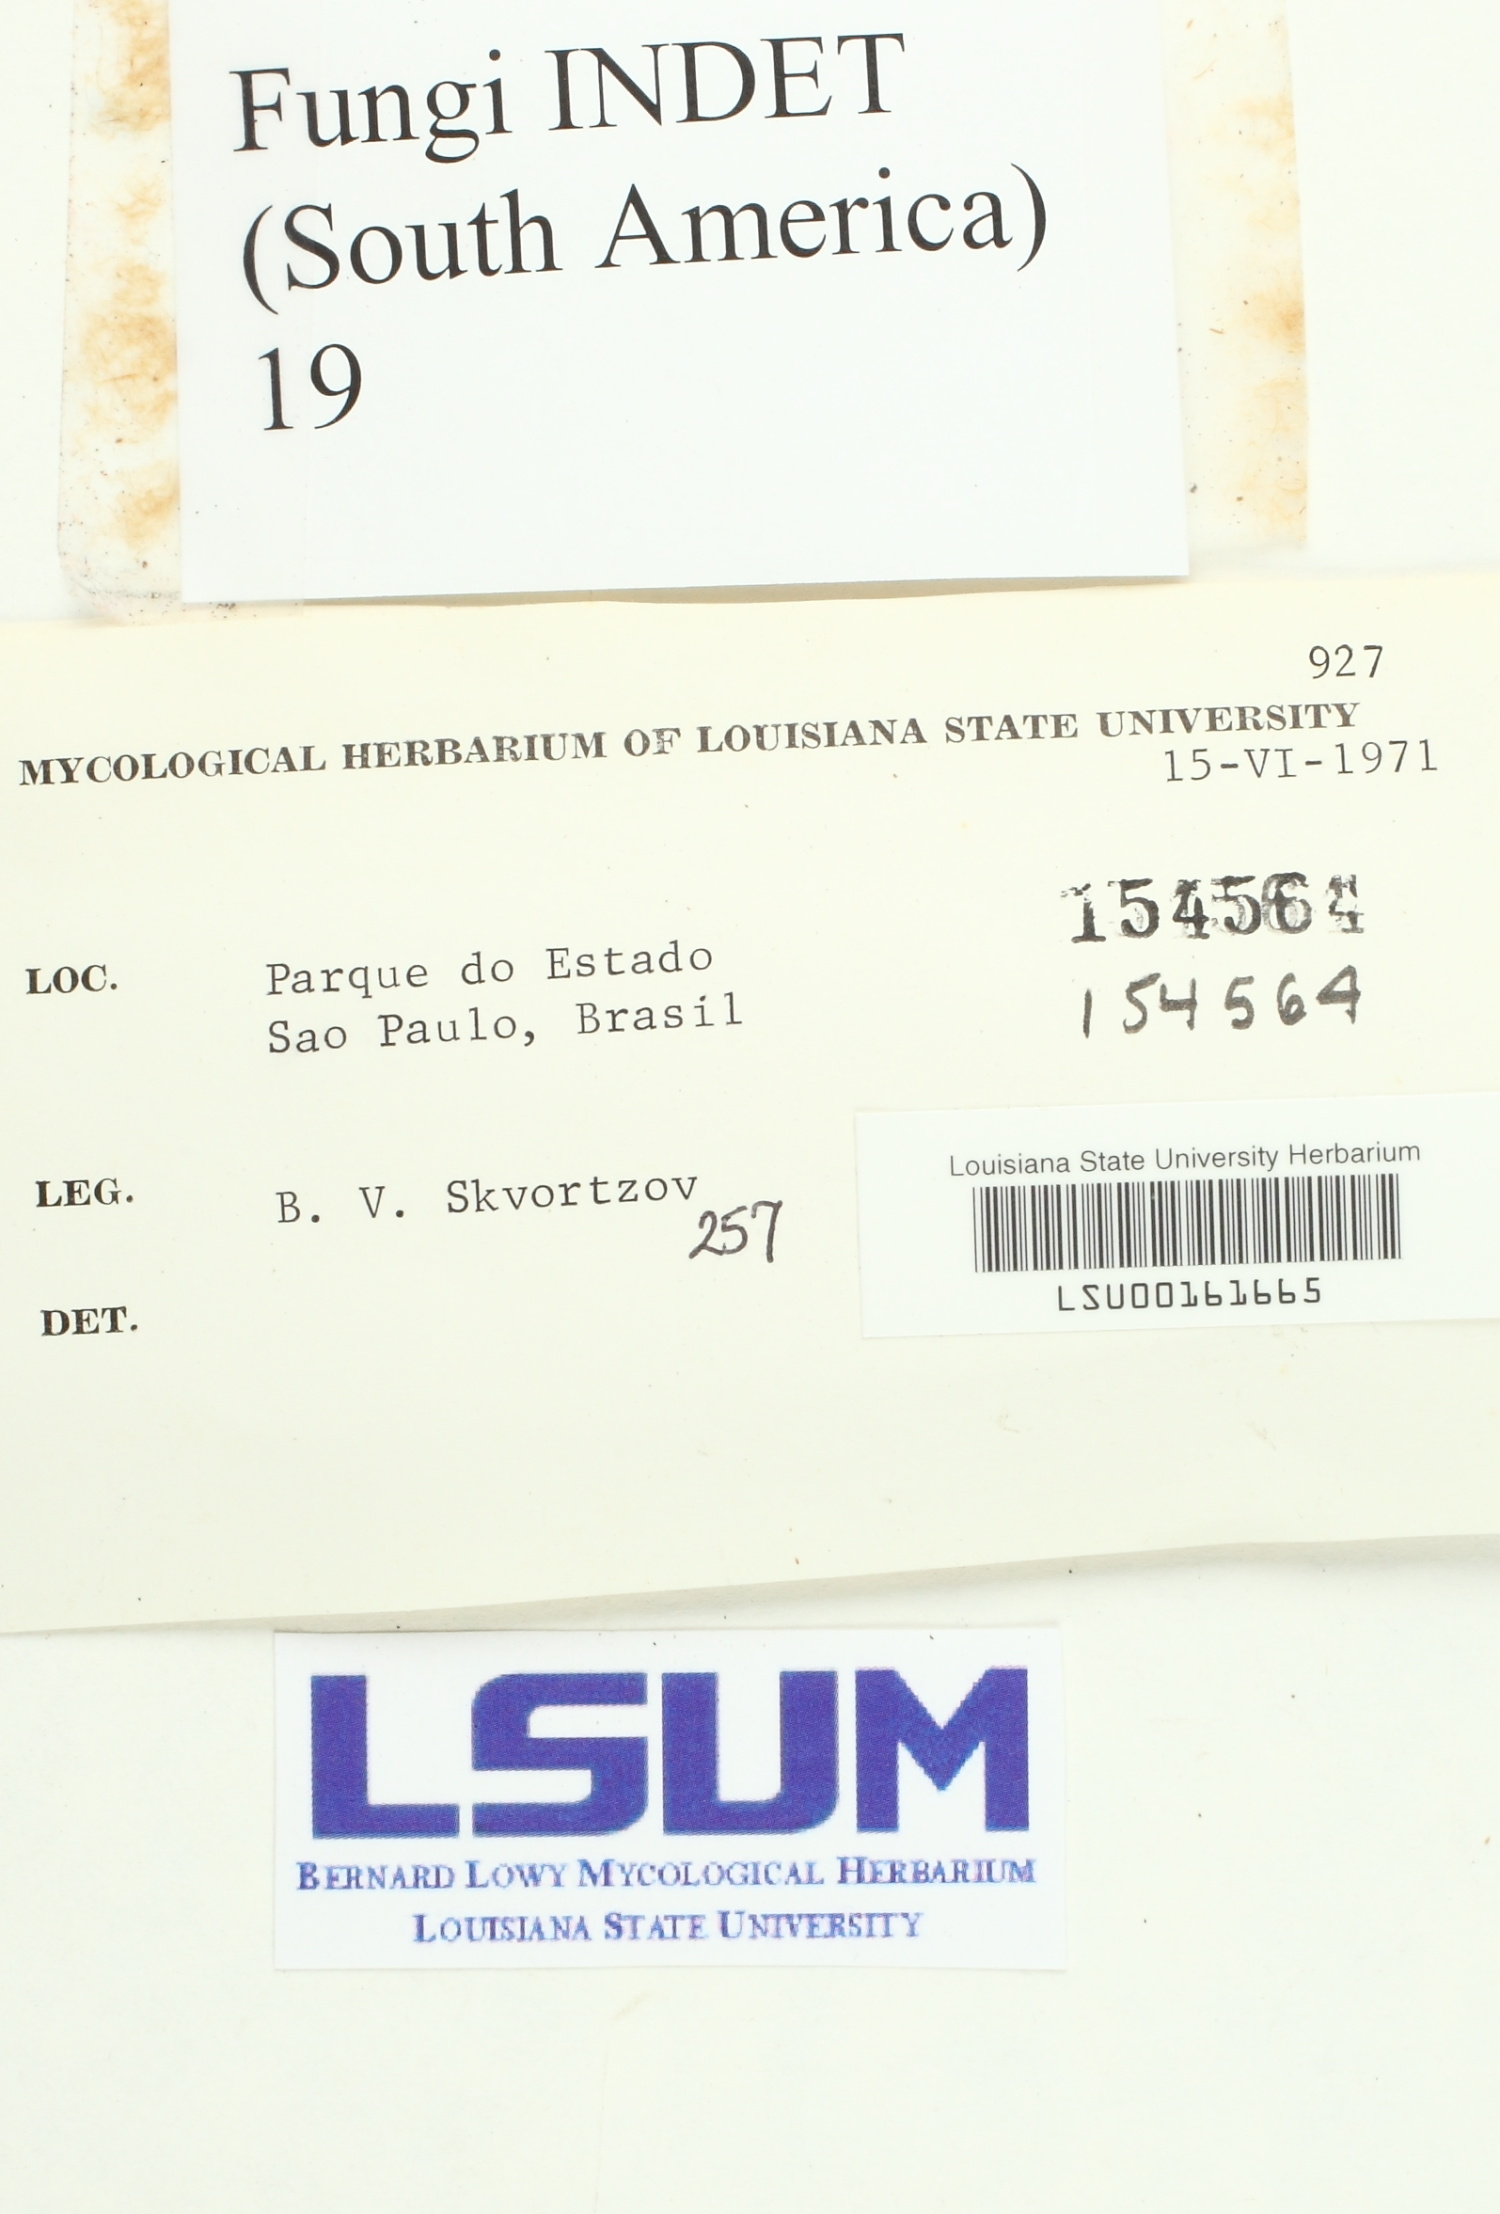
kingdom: Fungi
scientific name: Fungi
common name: Fungi
